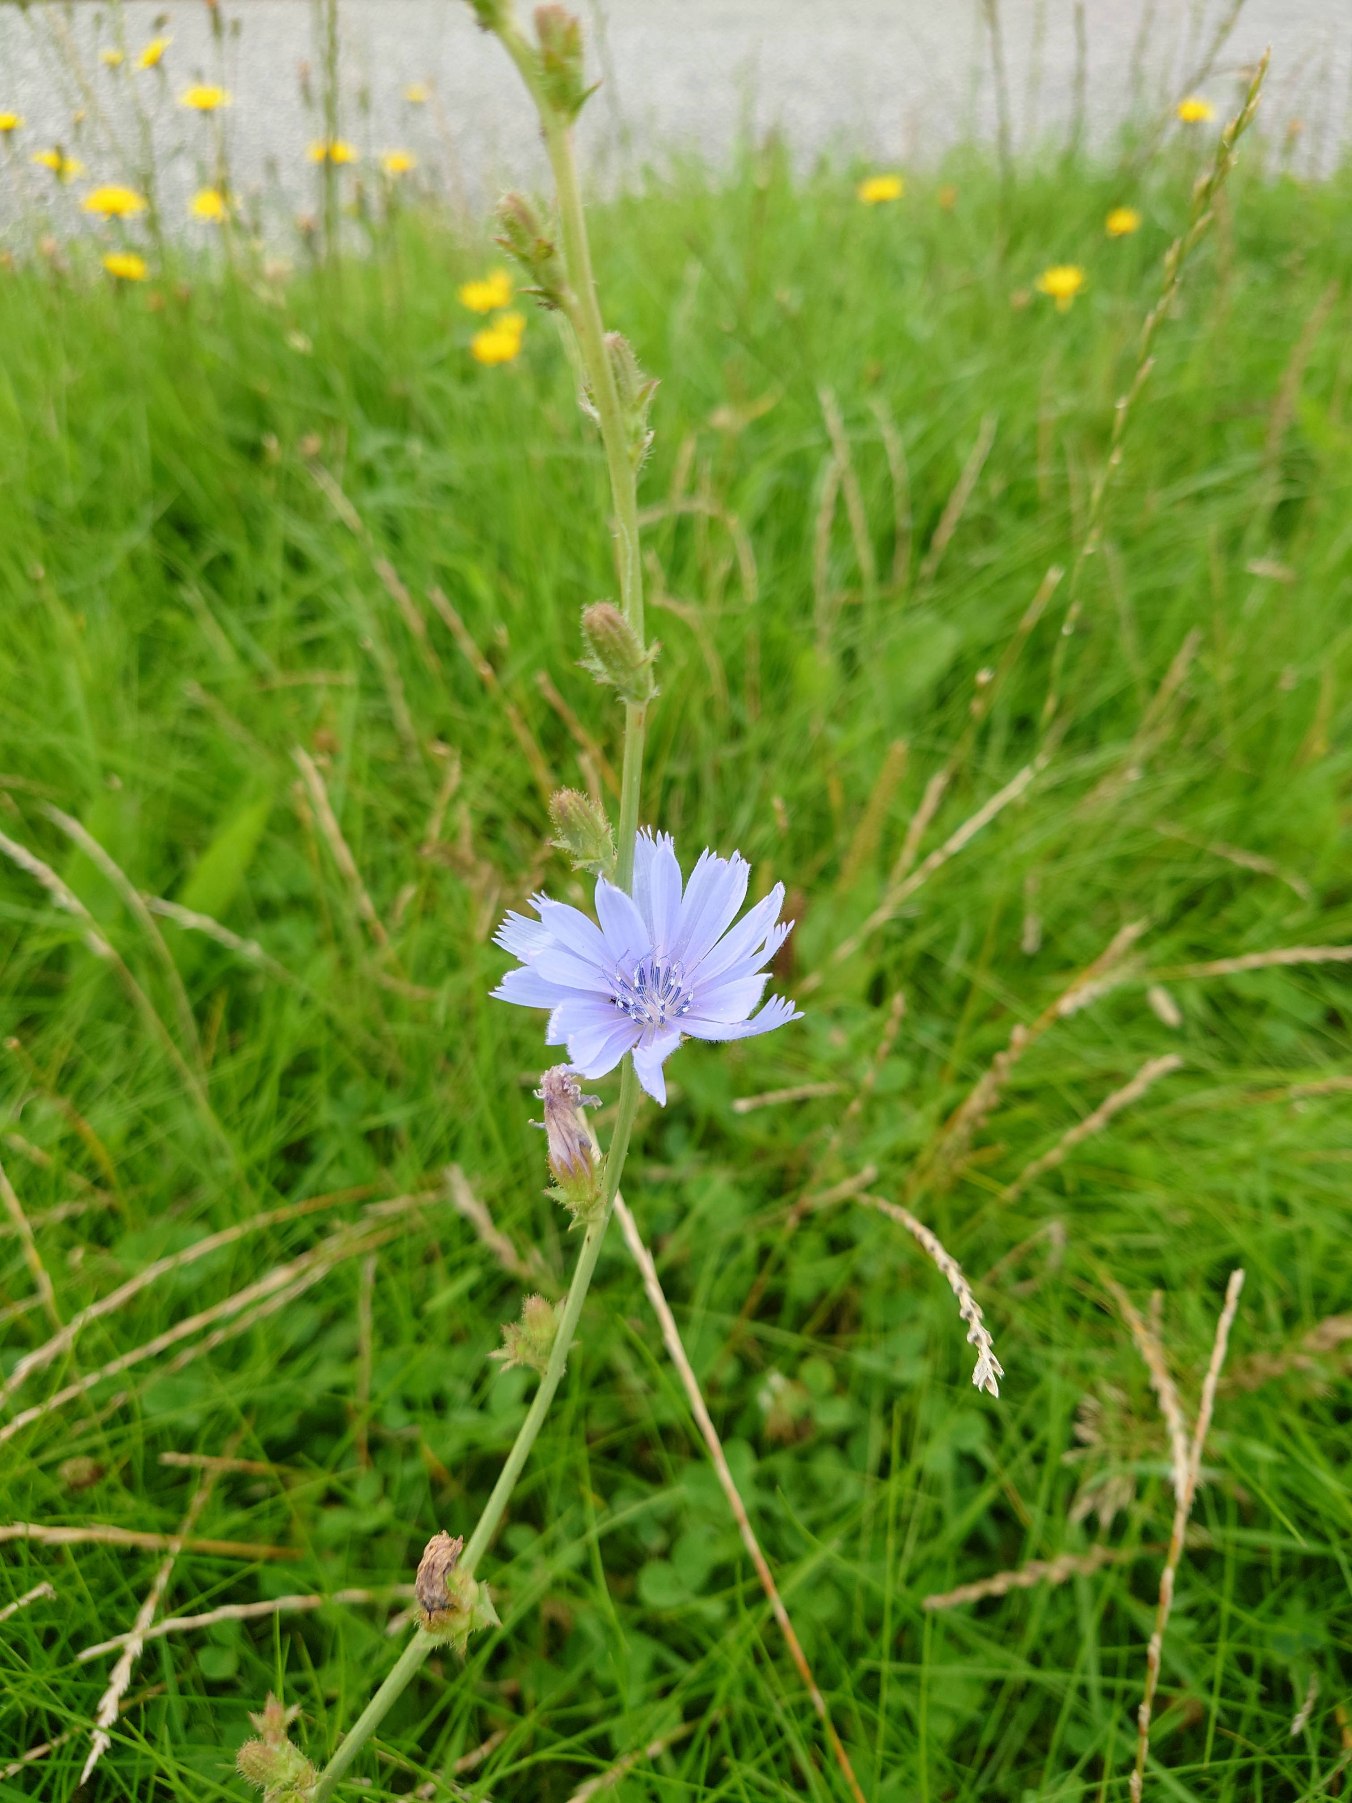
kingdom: Plantae
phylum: Tracheophyta
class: Magnoliopsida
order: Asterales
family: Asteraceae
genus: Cichorium
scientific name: Cichorium intybus
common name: Cikorie
